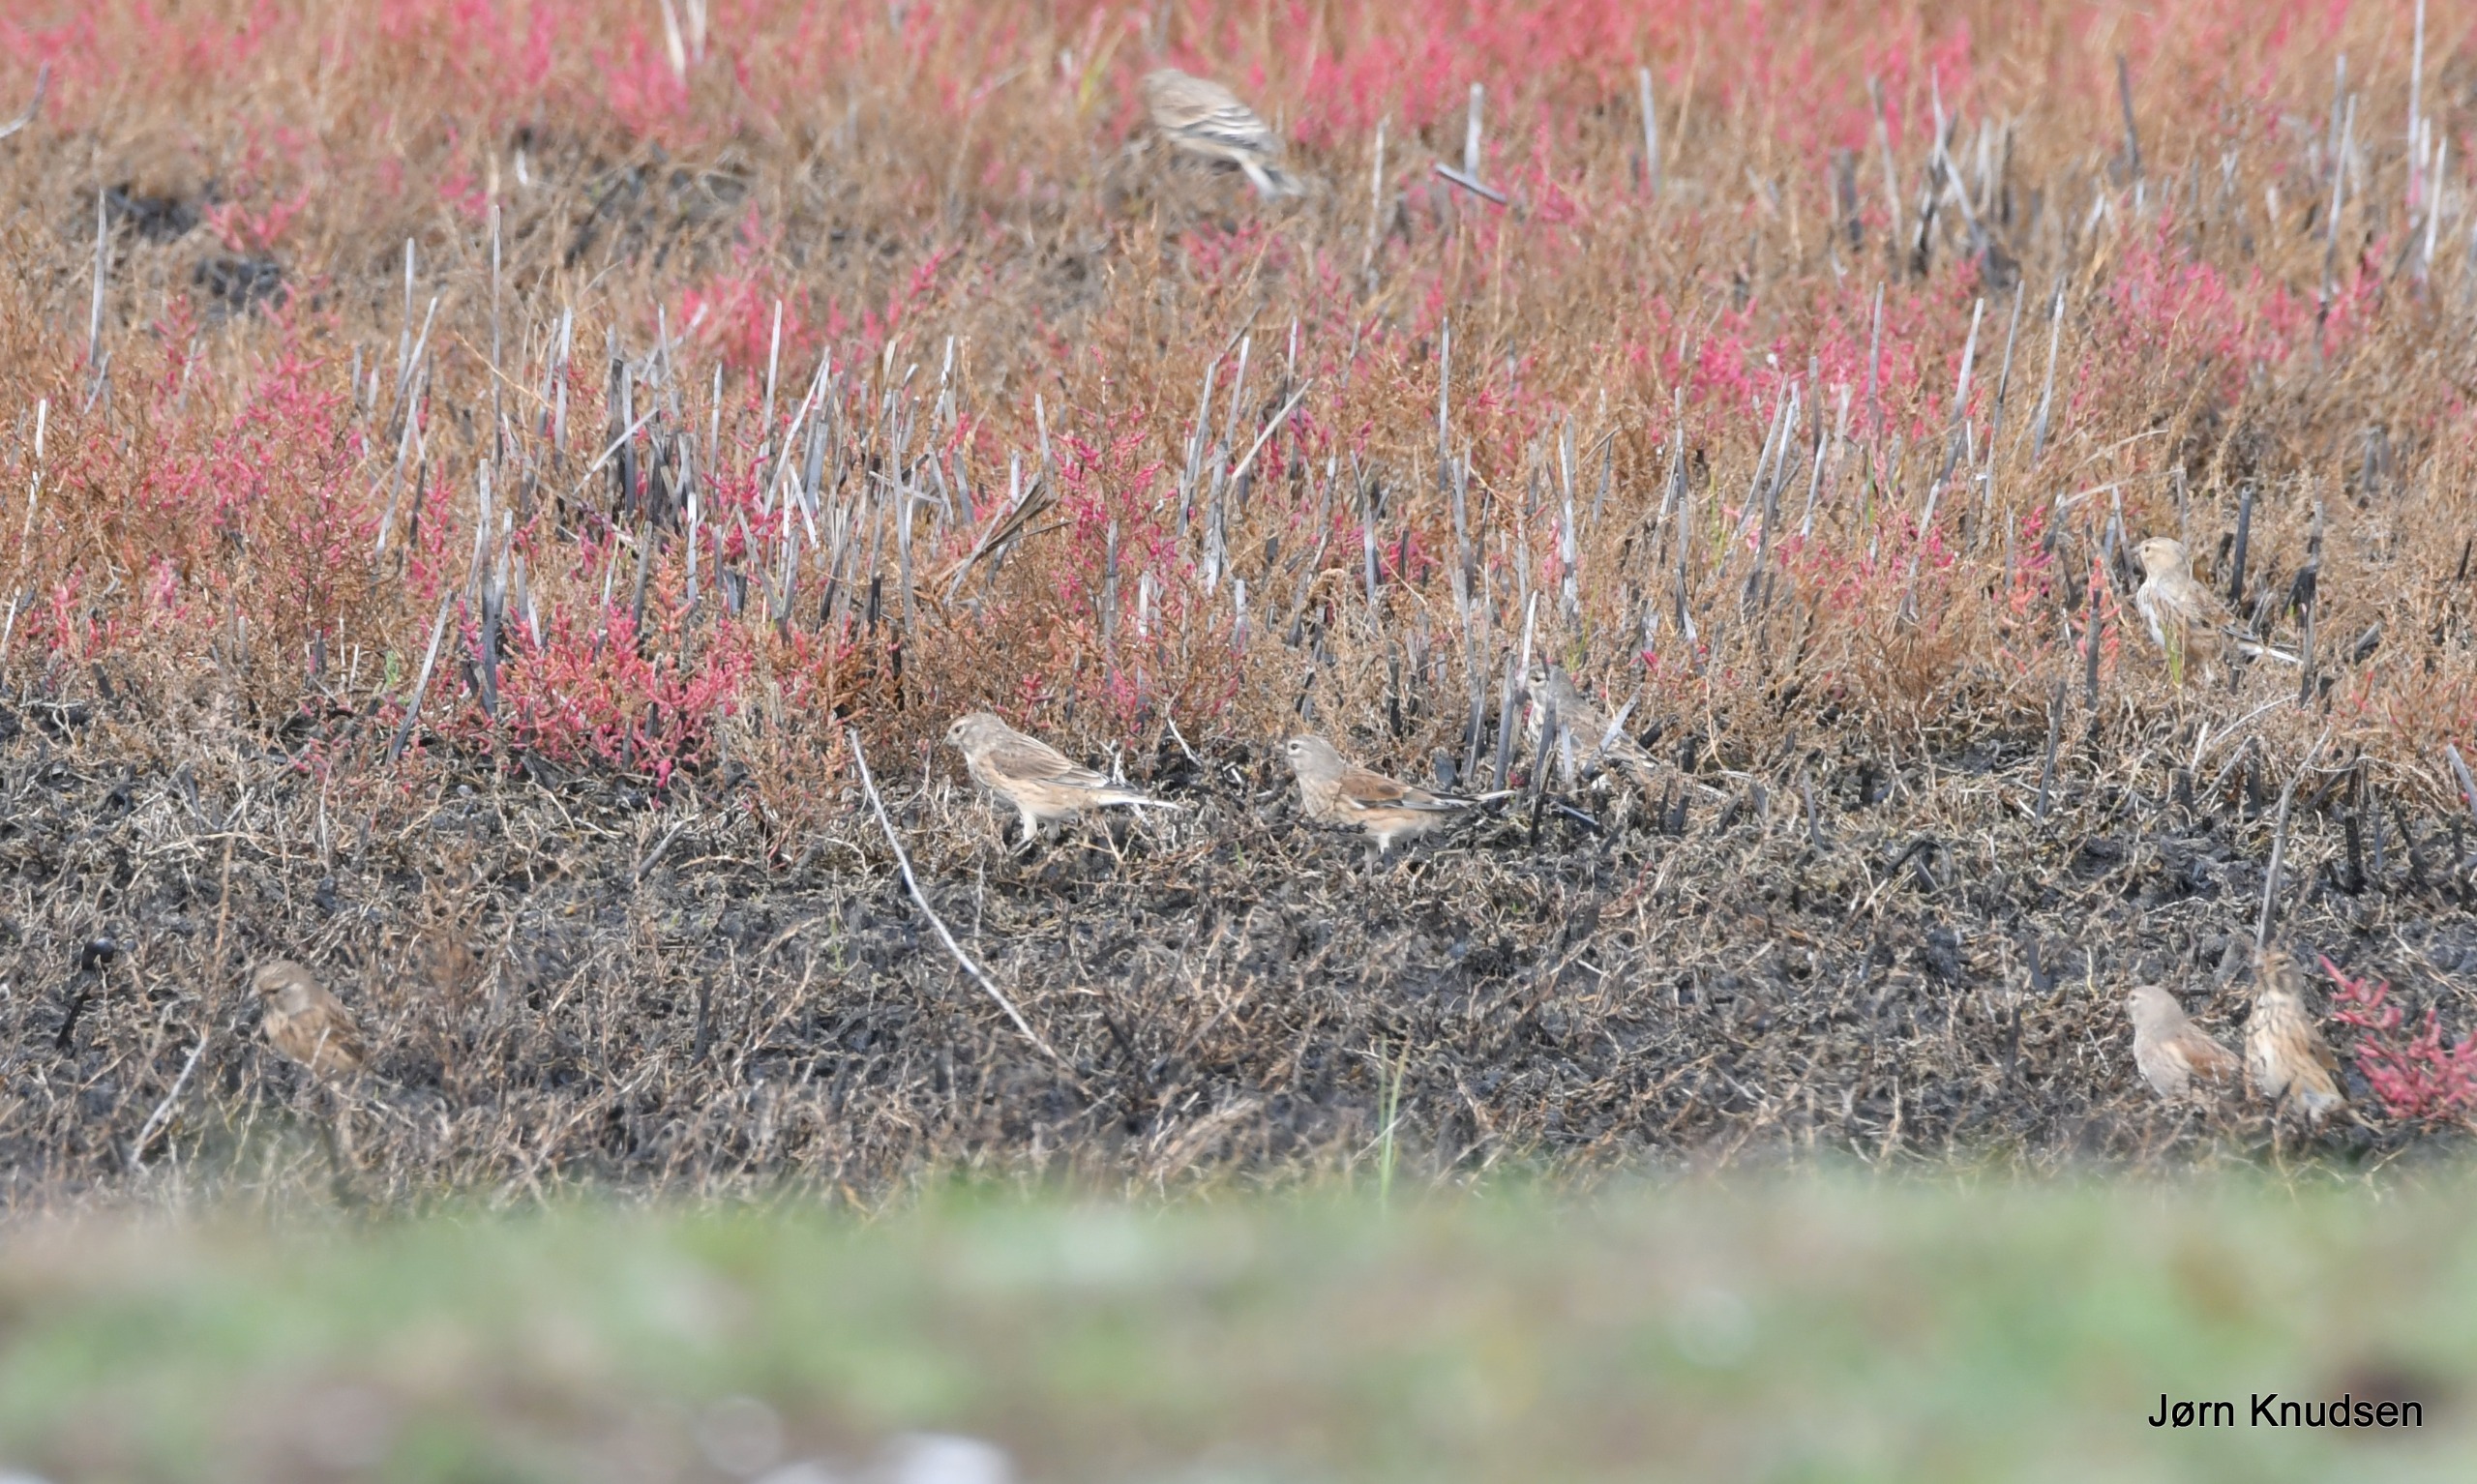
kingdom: Animalia
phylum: Chordata
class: Aves
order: Passeriformes
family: Fringillidae
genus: Linaria
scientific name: Linaria cannabina
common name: Tornirisk
